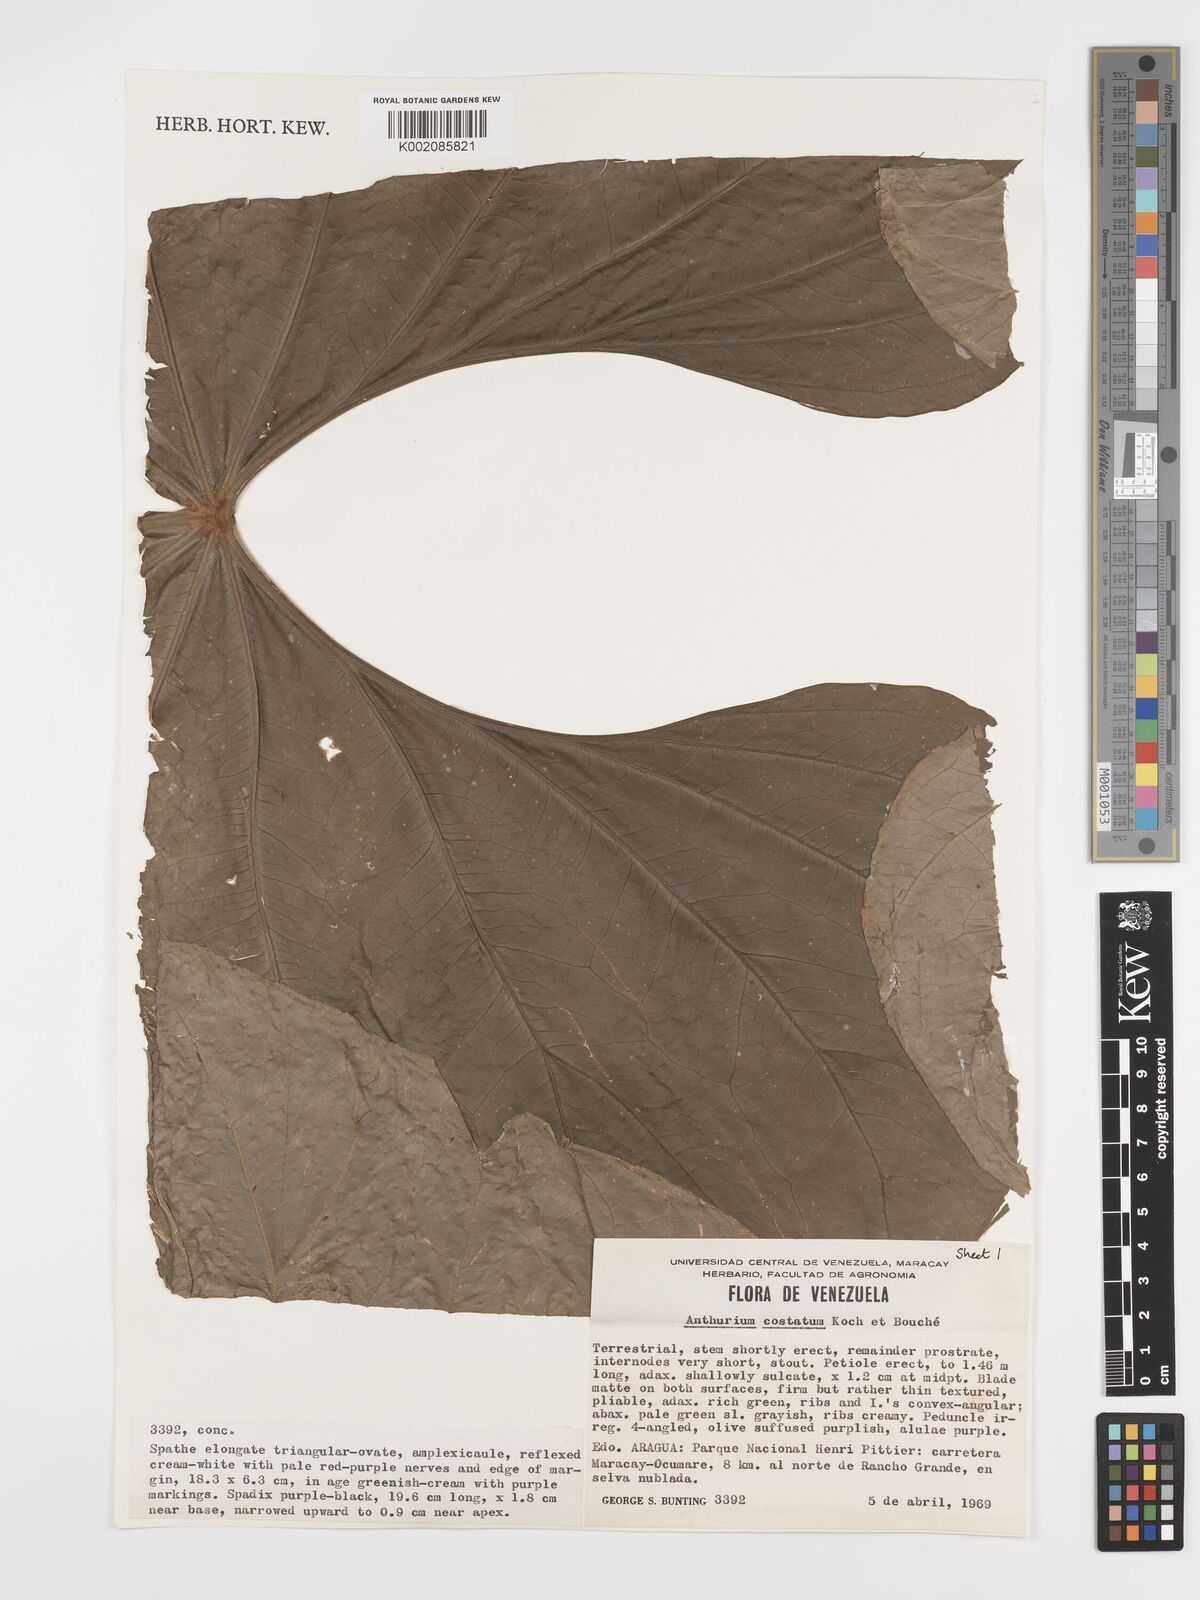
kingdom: Plantae
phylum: Tracheophyta
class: Liliopsida
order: Alismatales
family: Araceae
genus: Anthurium
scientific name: Anthurium macrophyllum
